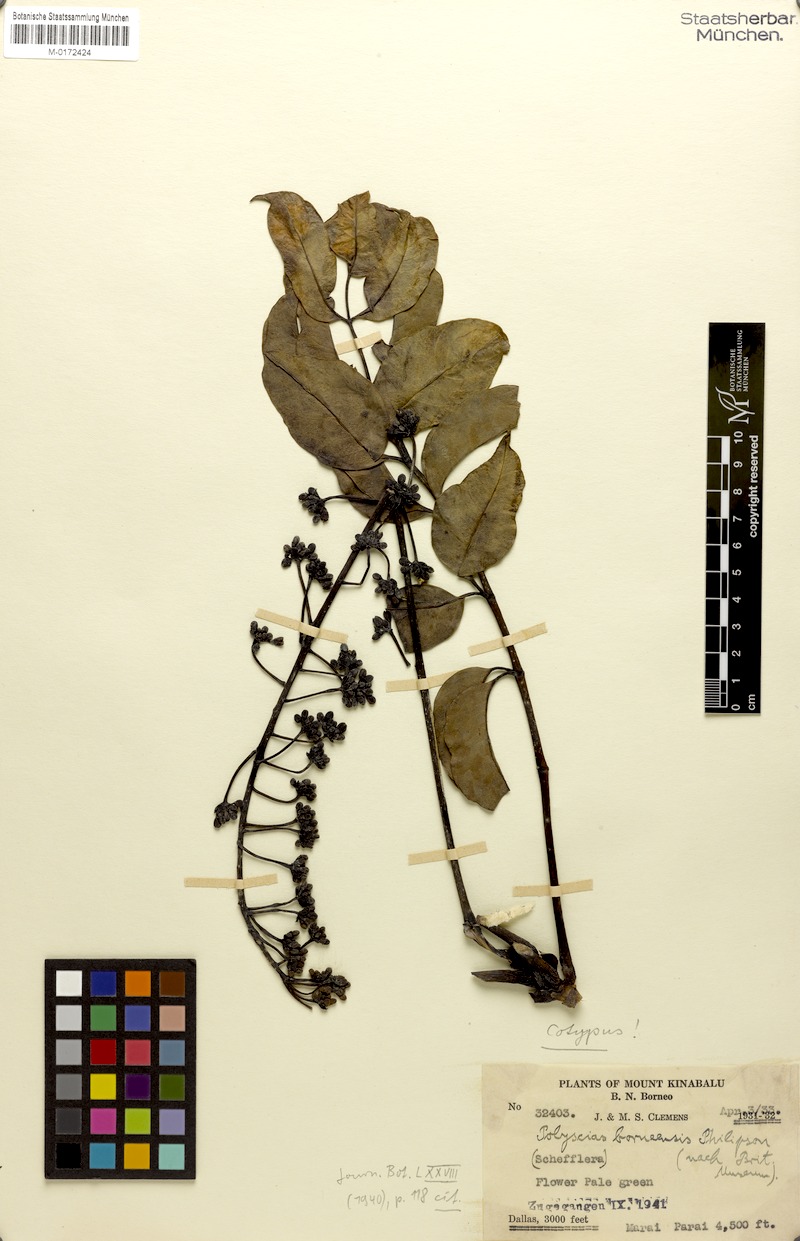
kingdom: Plantae
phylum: Tracheophyta
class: Magnoliopsida
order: Apiales
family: Araliaceae
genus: Polyscias
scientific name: Polyscias borneensis
